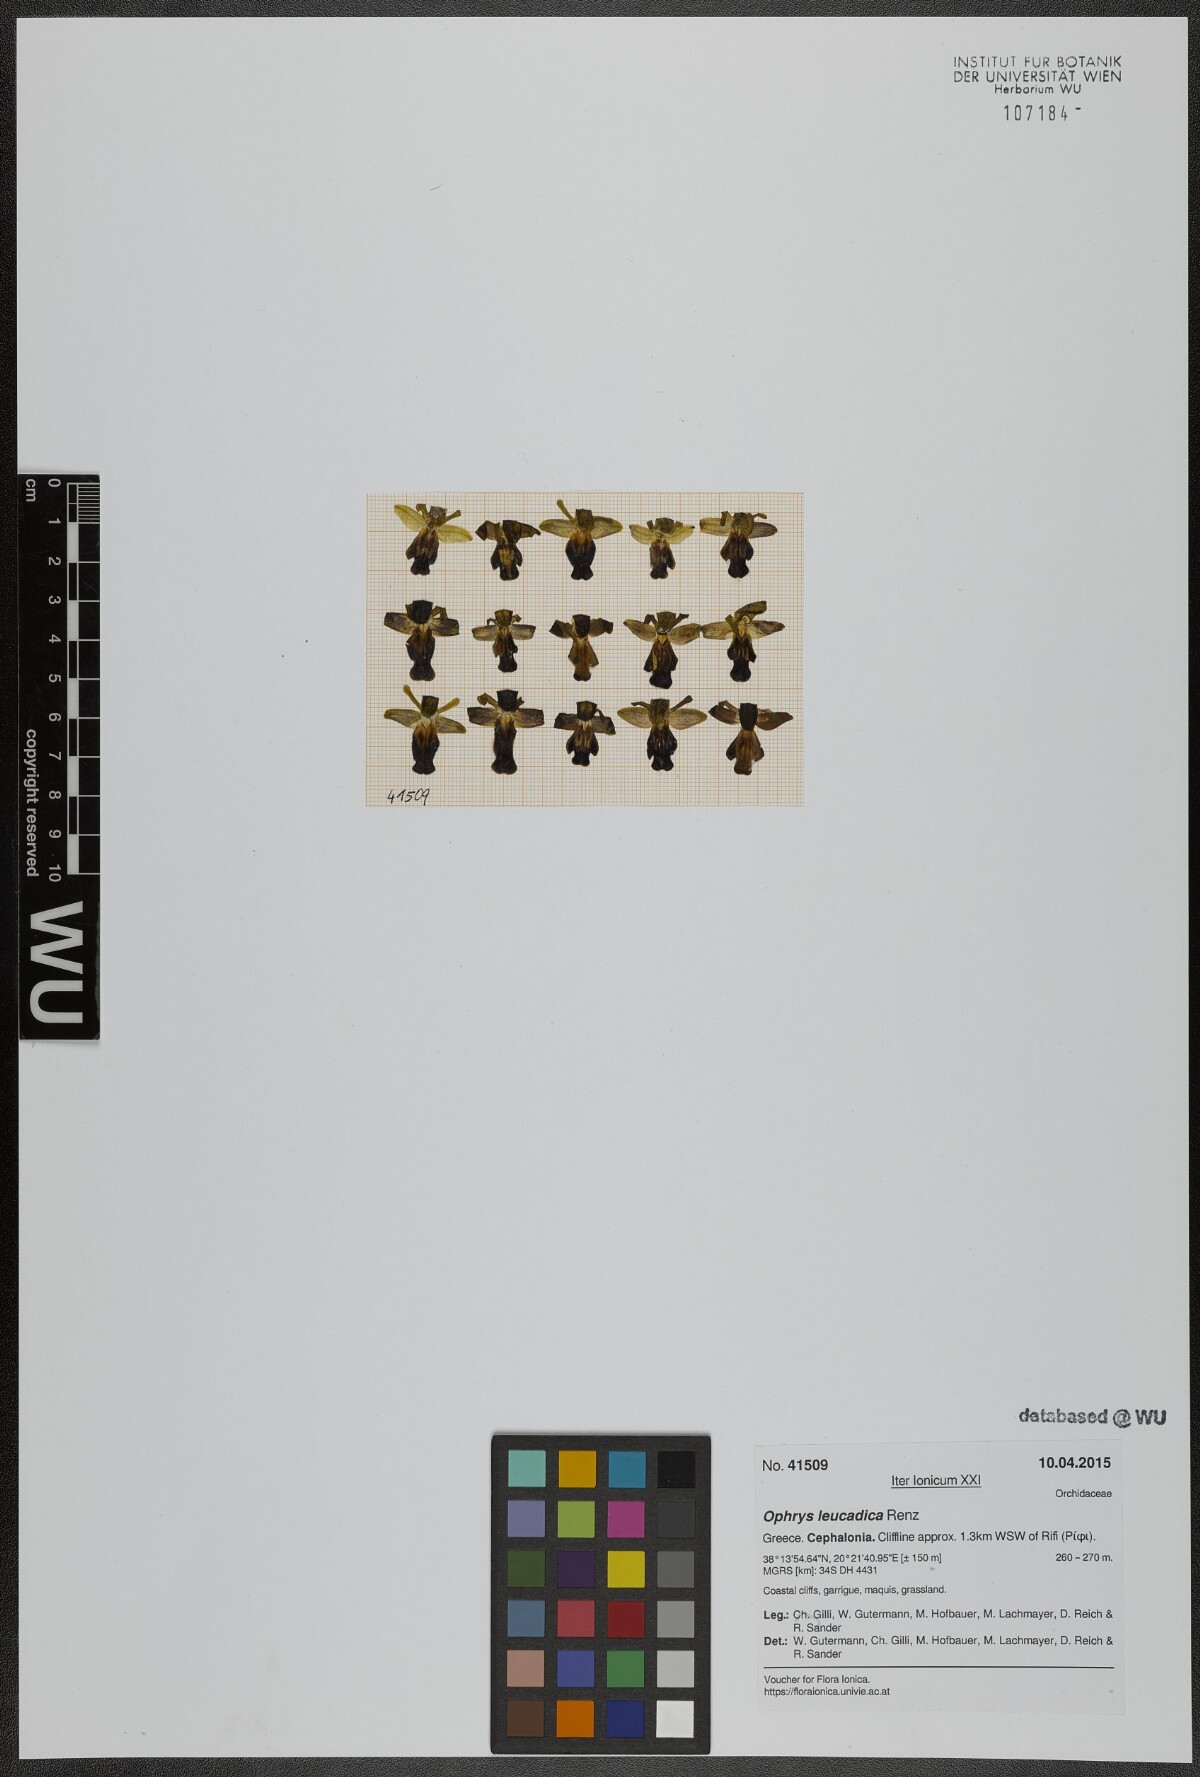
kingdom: Plantae
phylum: Tracheophyta
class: Liliopsida
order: Asparagales
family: Orchidaceae
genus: Ophrys
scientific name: Ophrys fusca
